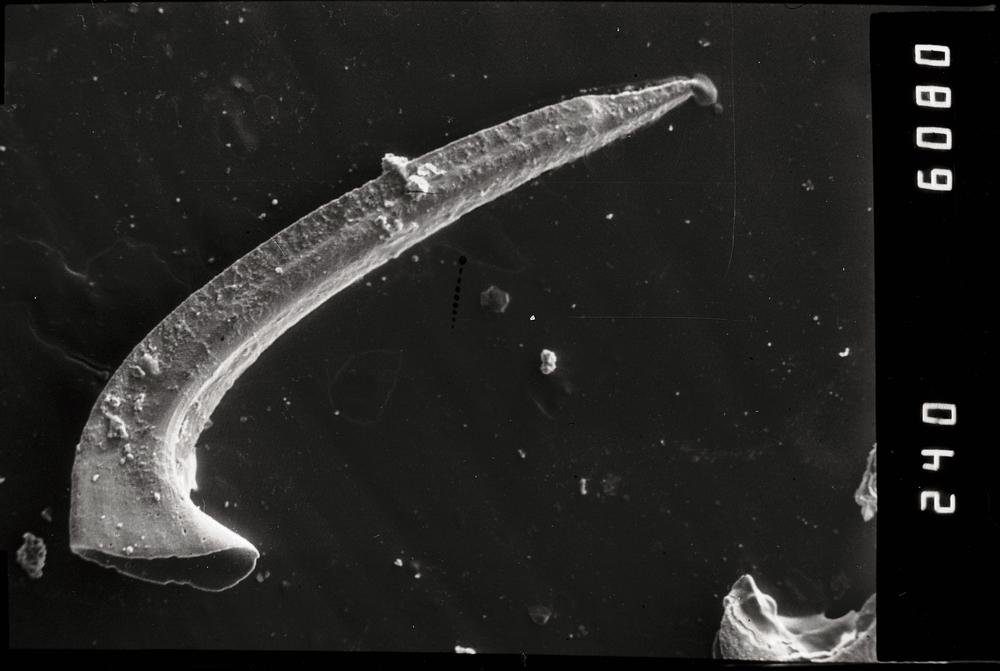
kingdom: Animalia
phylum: Chordata
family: Protopanderodontidae
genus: Protopanderodus
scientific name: Protopanderodus Acontiodus rectus
